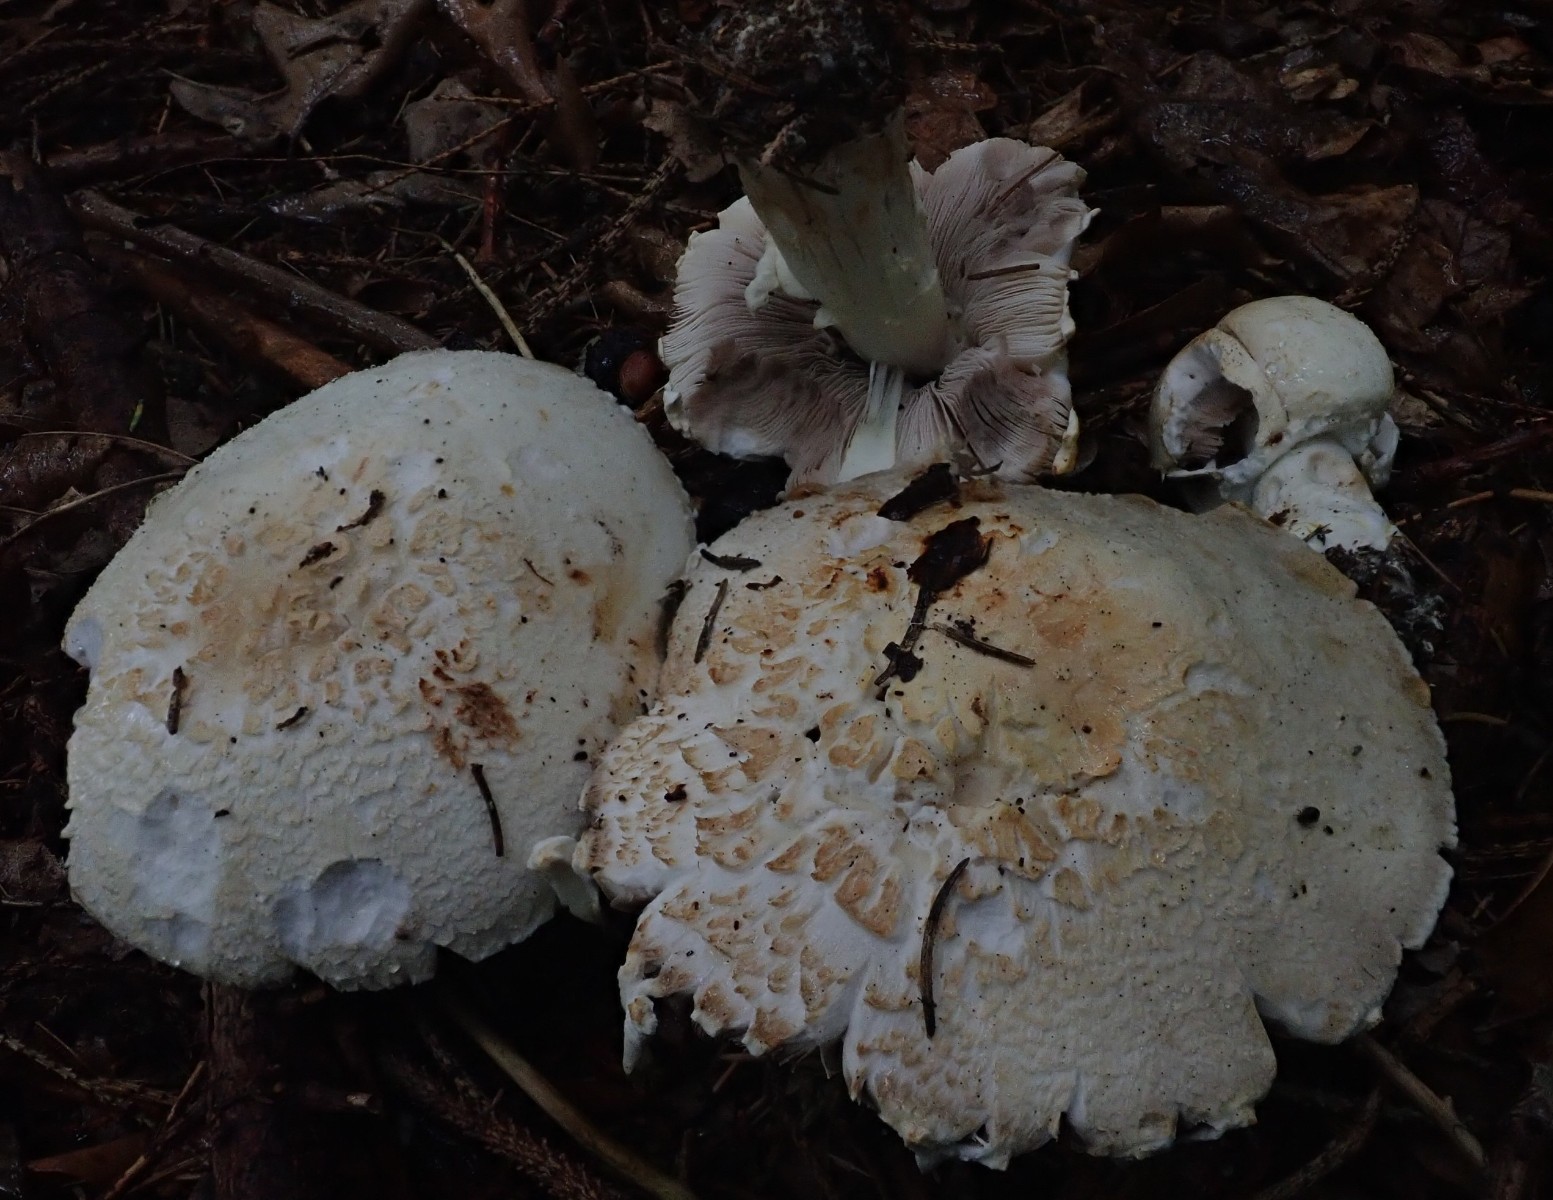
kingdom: Fungi
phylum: Basidiomycota
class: Agaricomycetes
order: Agaricales
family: Agaricaceae
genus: Agaricus
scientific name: Agaricus
